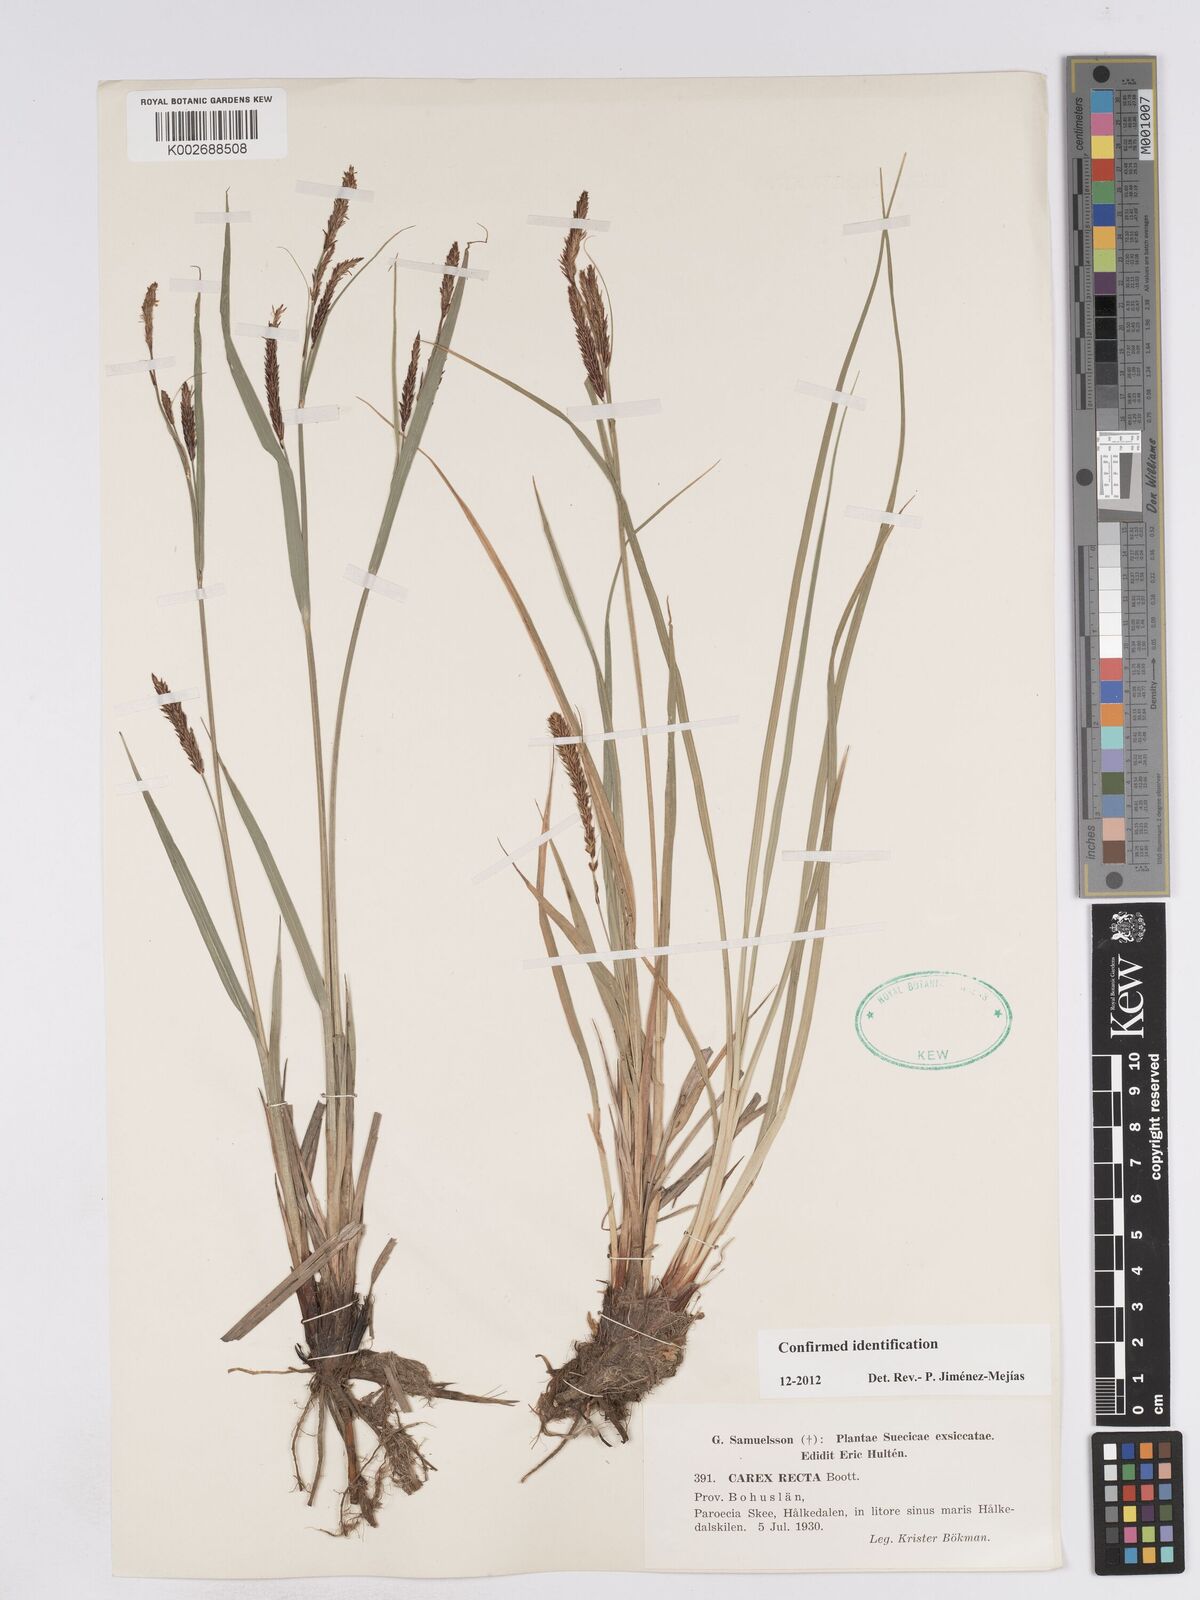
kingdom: Plantae
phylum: Tracheophyta
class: Liliopsida
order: Poales
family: Cyperaceae
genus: Carex
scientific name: Carex recta
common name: Estuarine sedge
